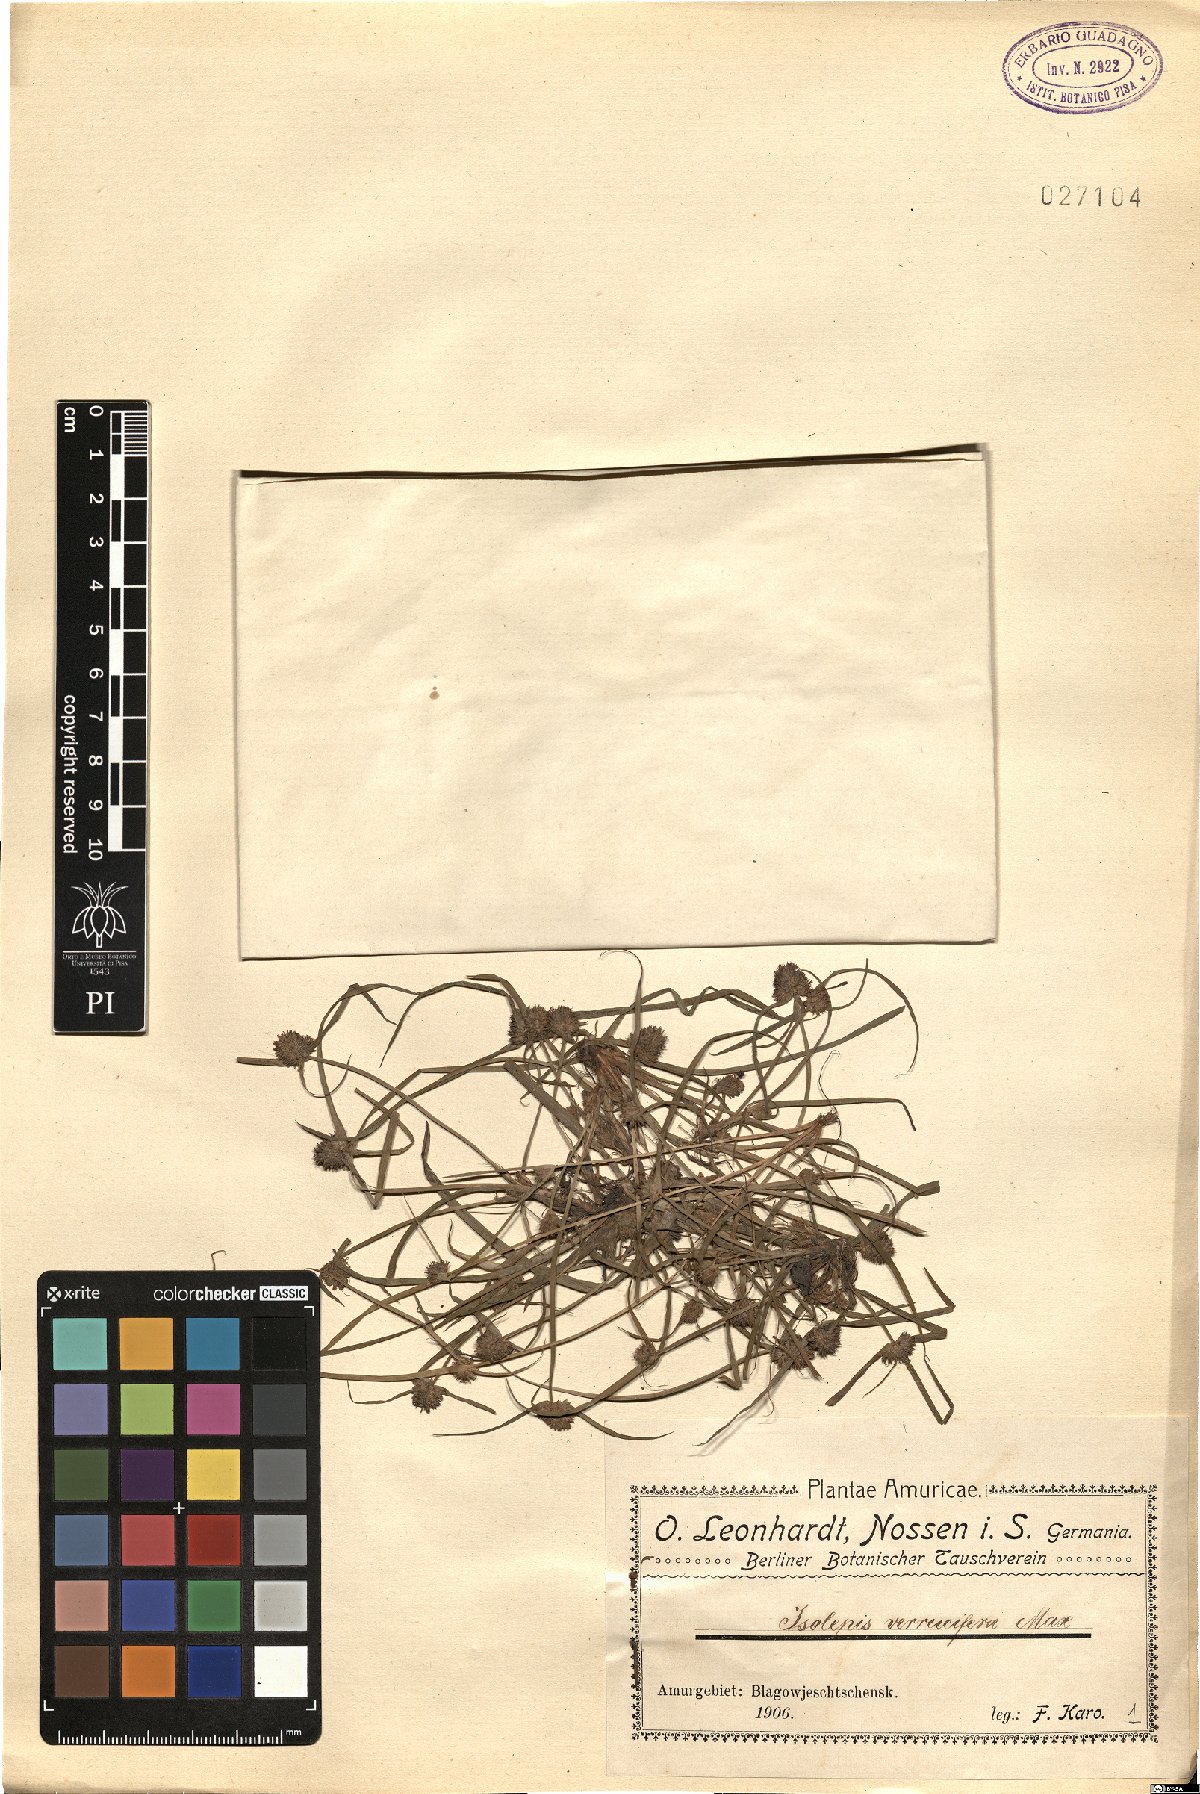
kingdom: Plantae
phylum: Tracheophyta
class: Liliopsida
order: Poales
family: Cyperaceae
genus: Fimbristylis
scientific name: Fimbristylis dipsacea
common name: Harper's fimbristylis
